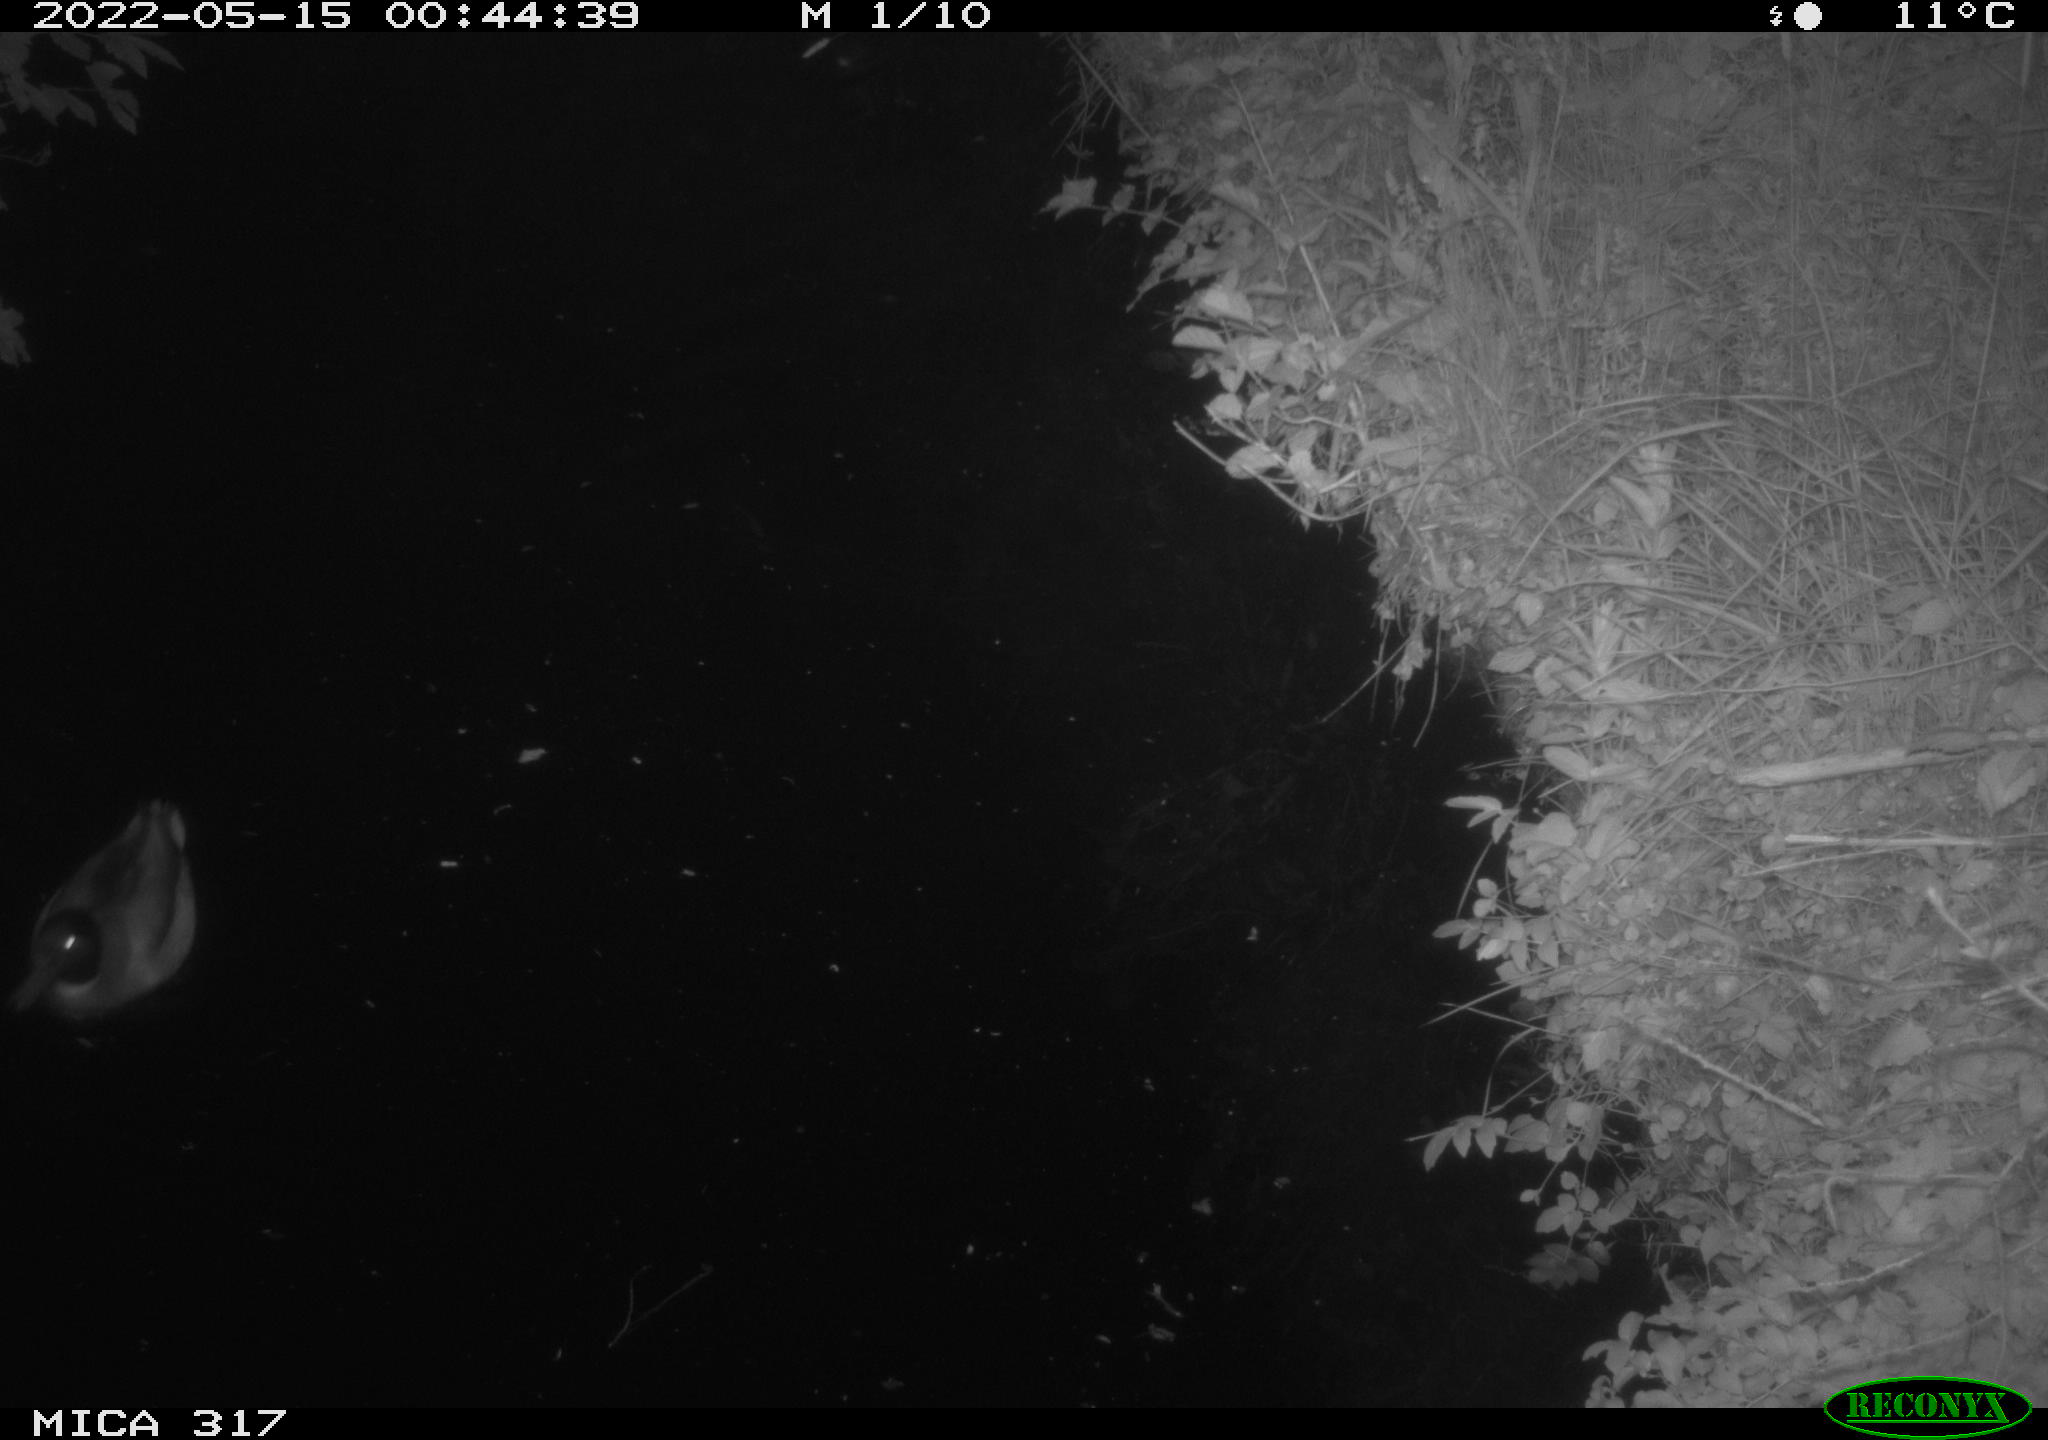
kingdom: Animalia
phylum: Chordata
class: Aves
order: Anseriformes
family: Anatidae
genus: Anas
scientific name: Anas
